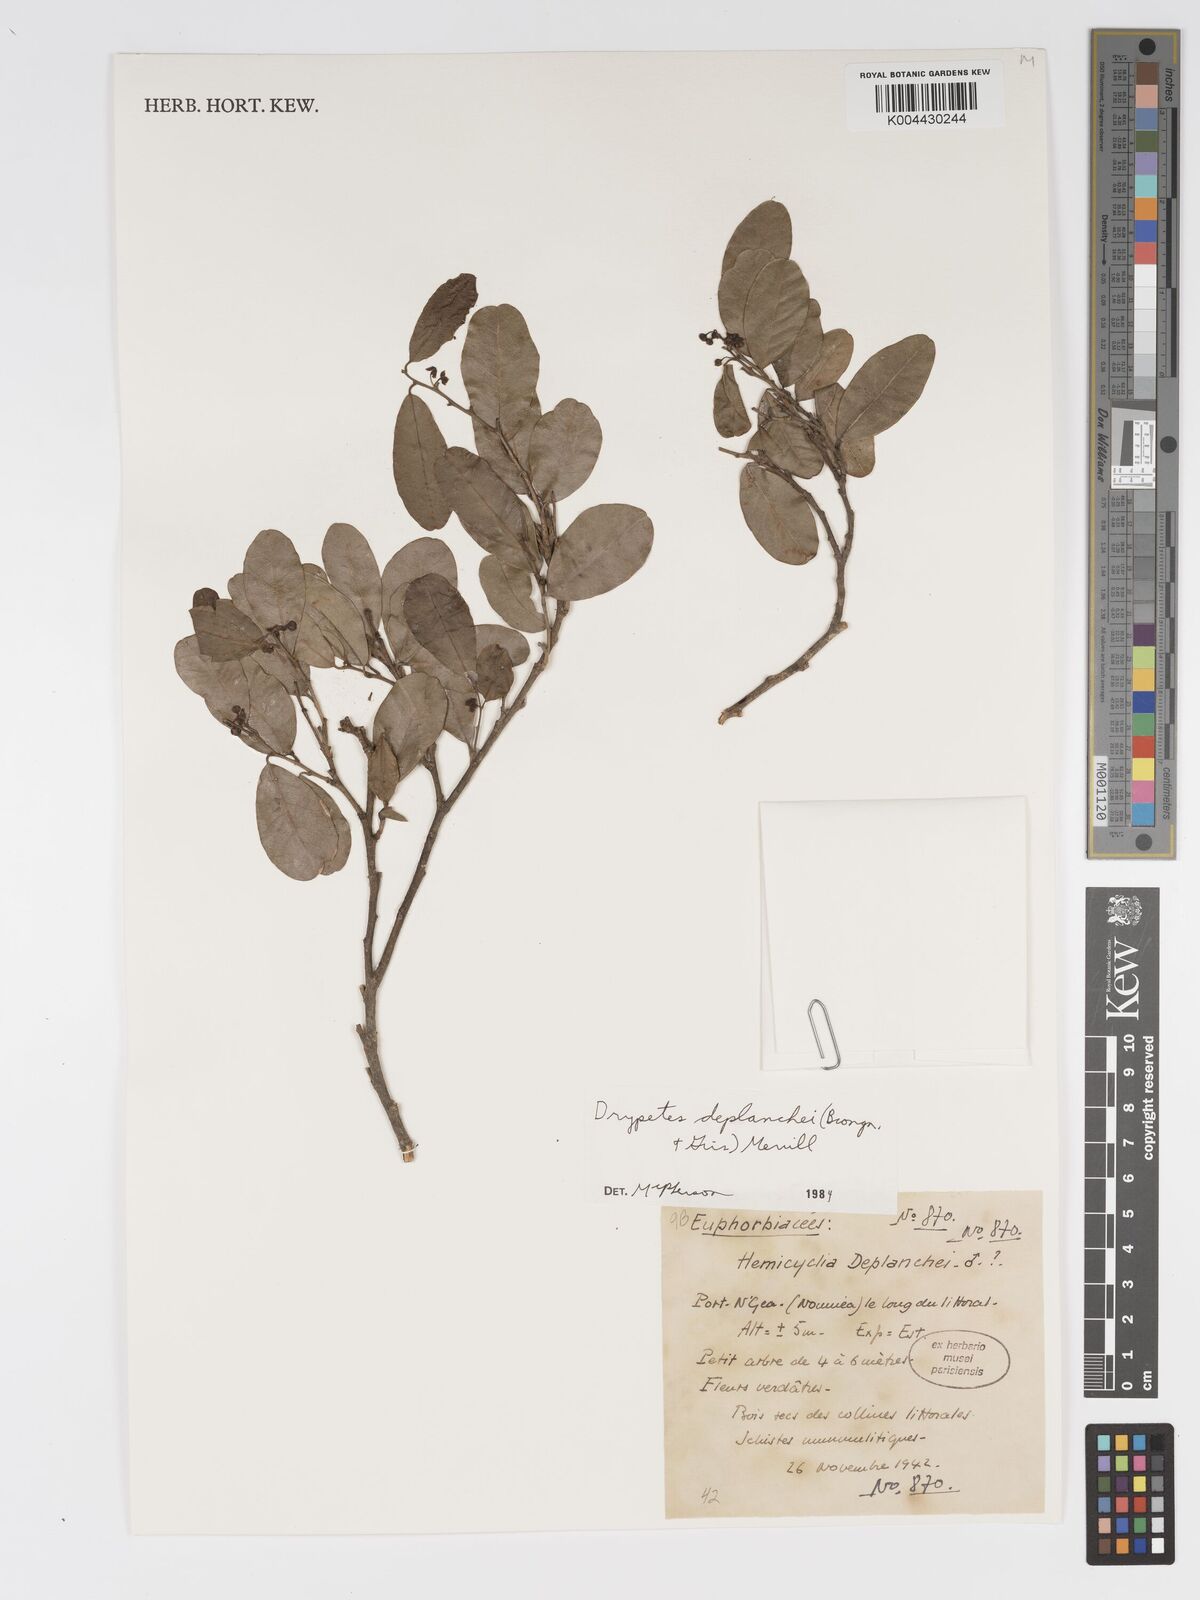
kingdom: Plantae
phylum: Tracheophyta
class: Magnoliopsida
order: Malpighiales
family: Putranjivaceae
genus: Drypetes
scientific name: Drypetes deplanchei
